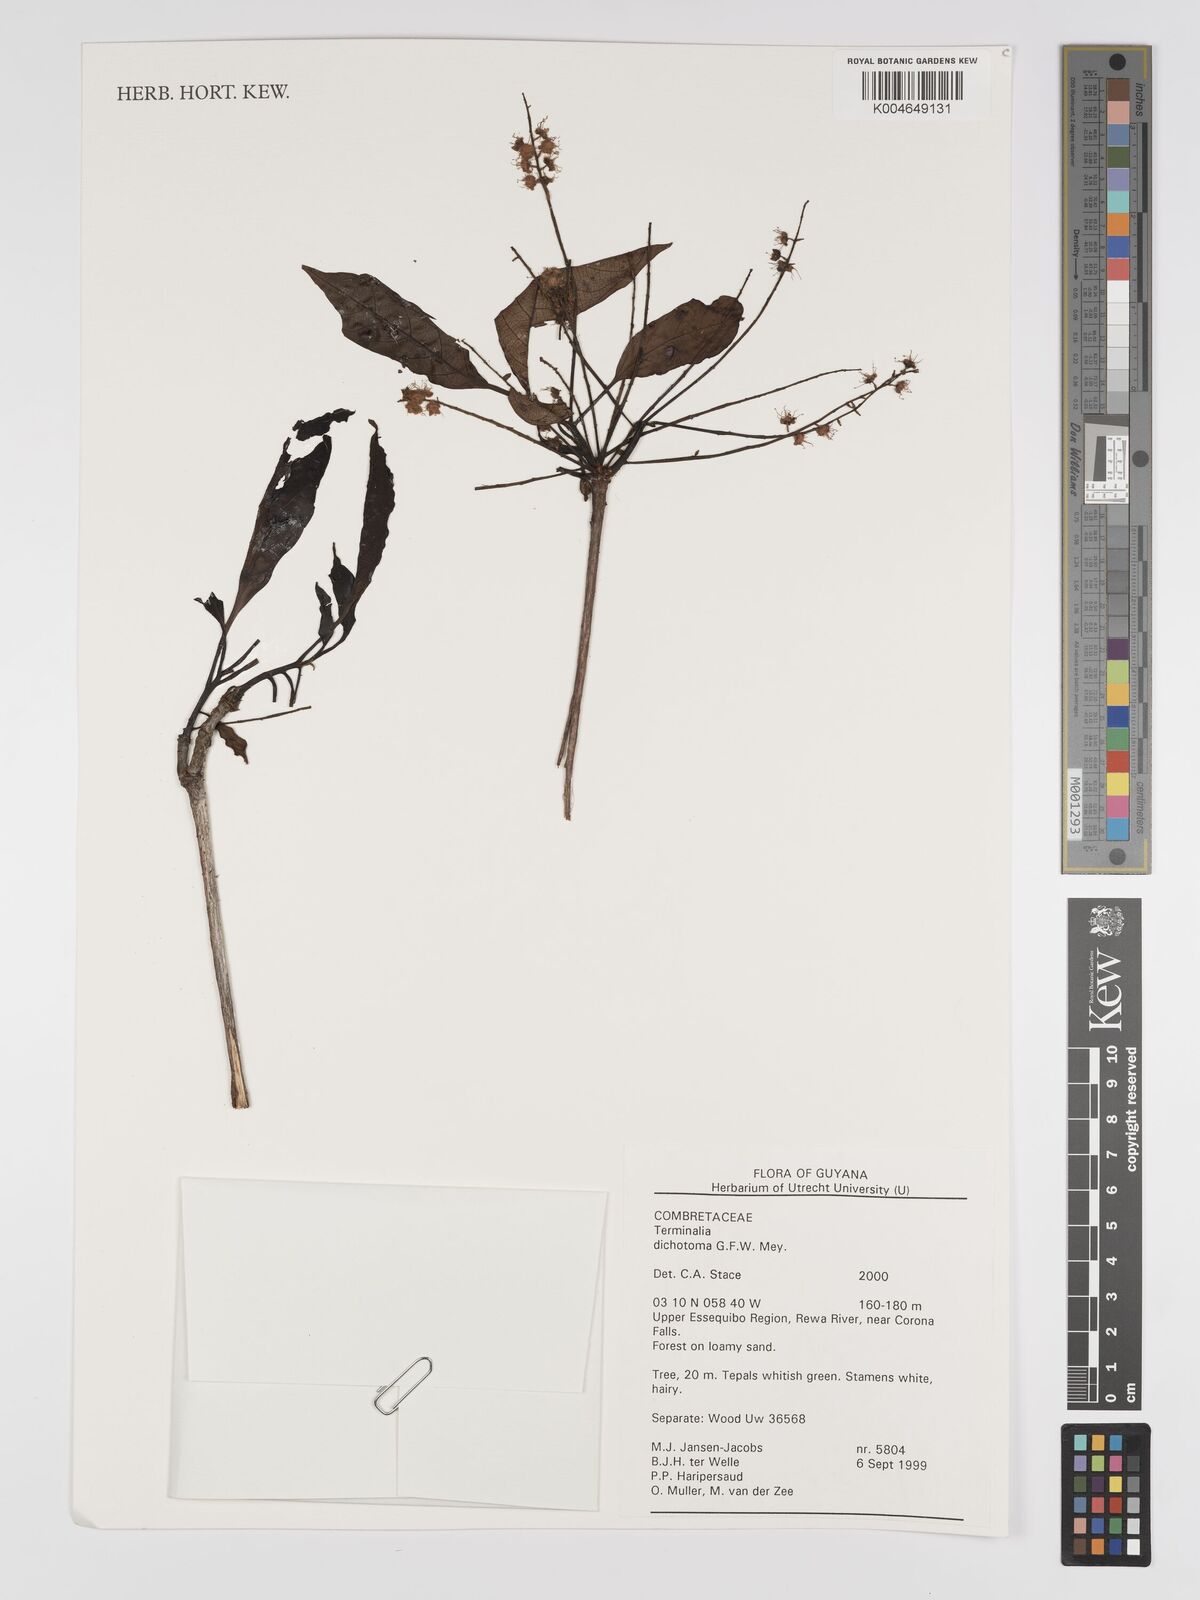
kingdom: Plantae
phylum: Tracheophyta
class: Magnoliopsida
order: Myrtales
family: Combretaceae
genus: Terminalia
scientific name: Terminalia dichotoma
